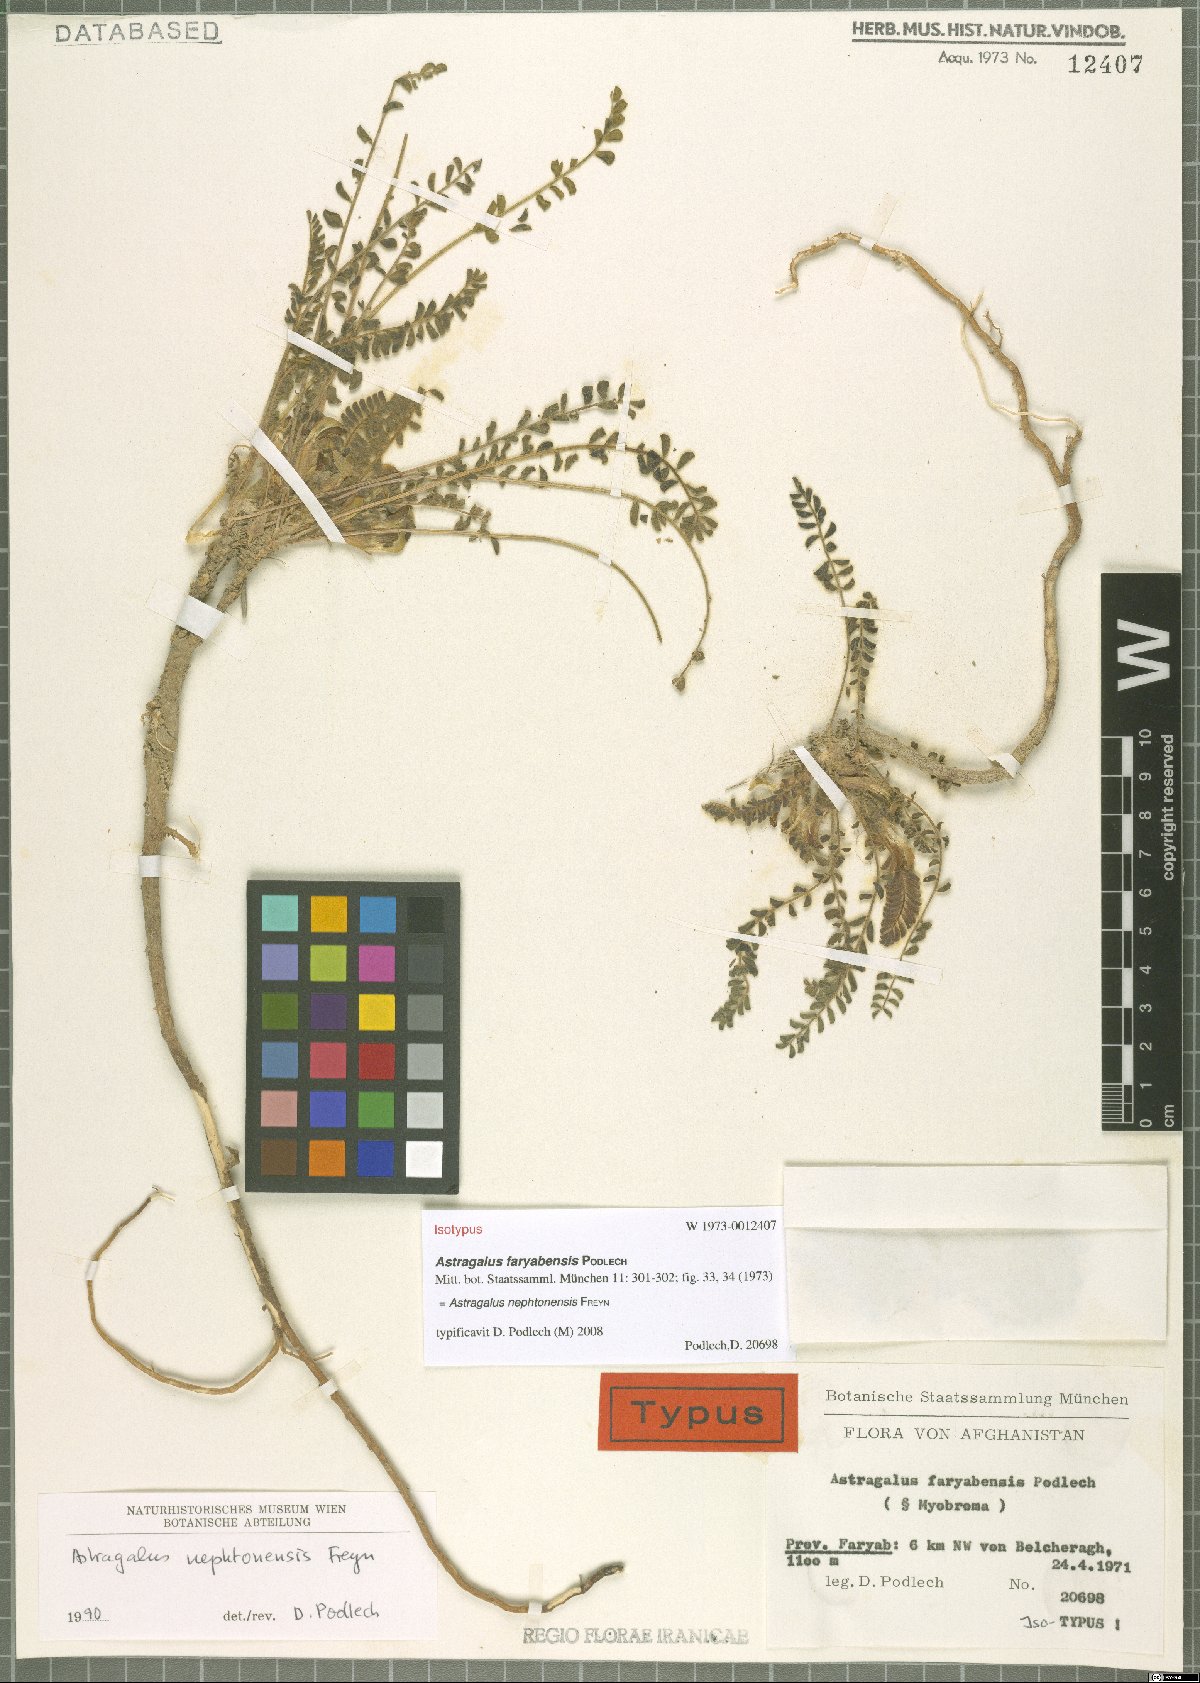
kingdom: Plantae
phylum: Tracheophyta
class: Magnoliopsida
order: Fabales
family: Fabaceae
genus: Astragalus
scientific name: Astragalus nephtonensis
